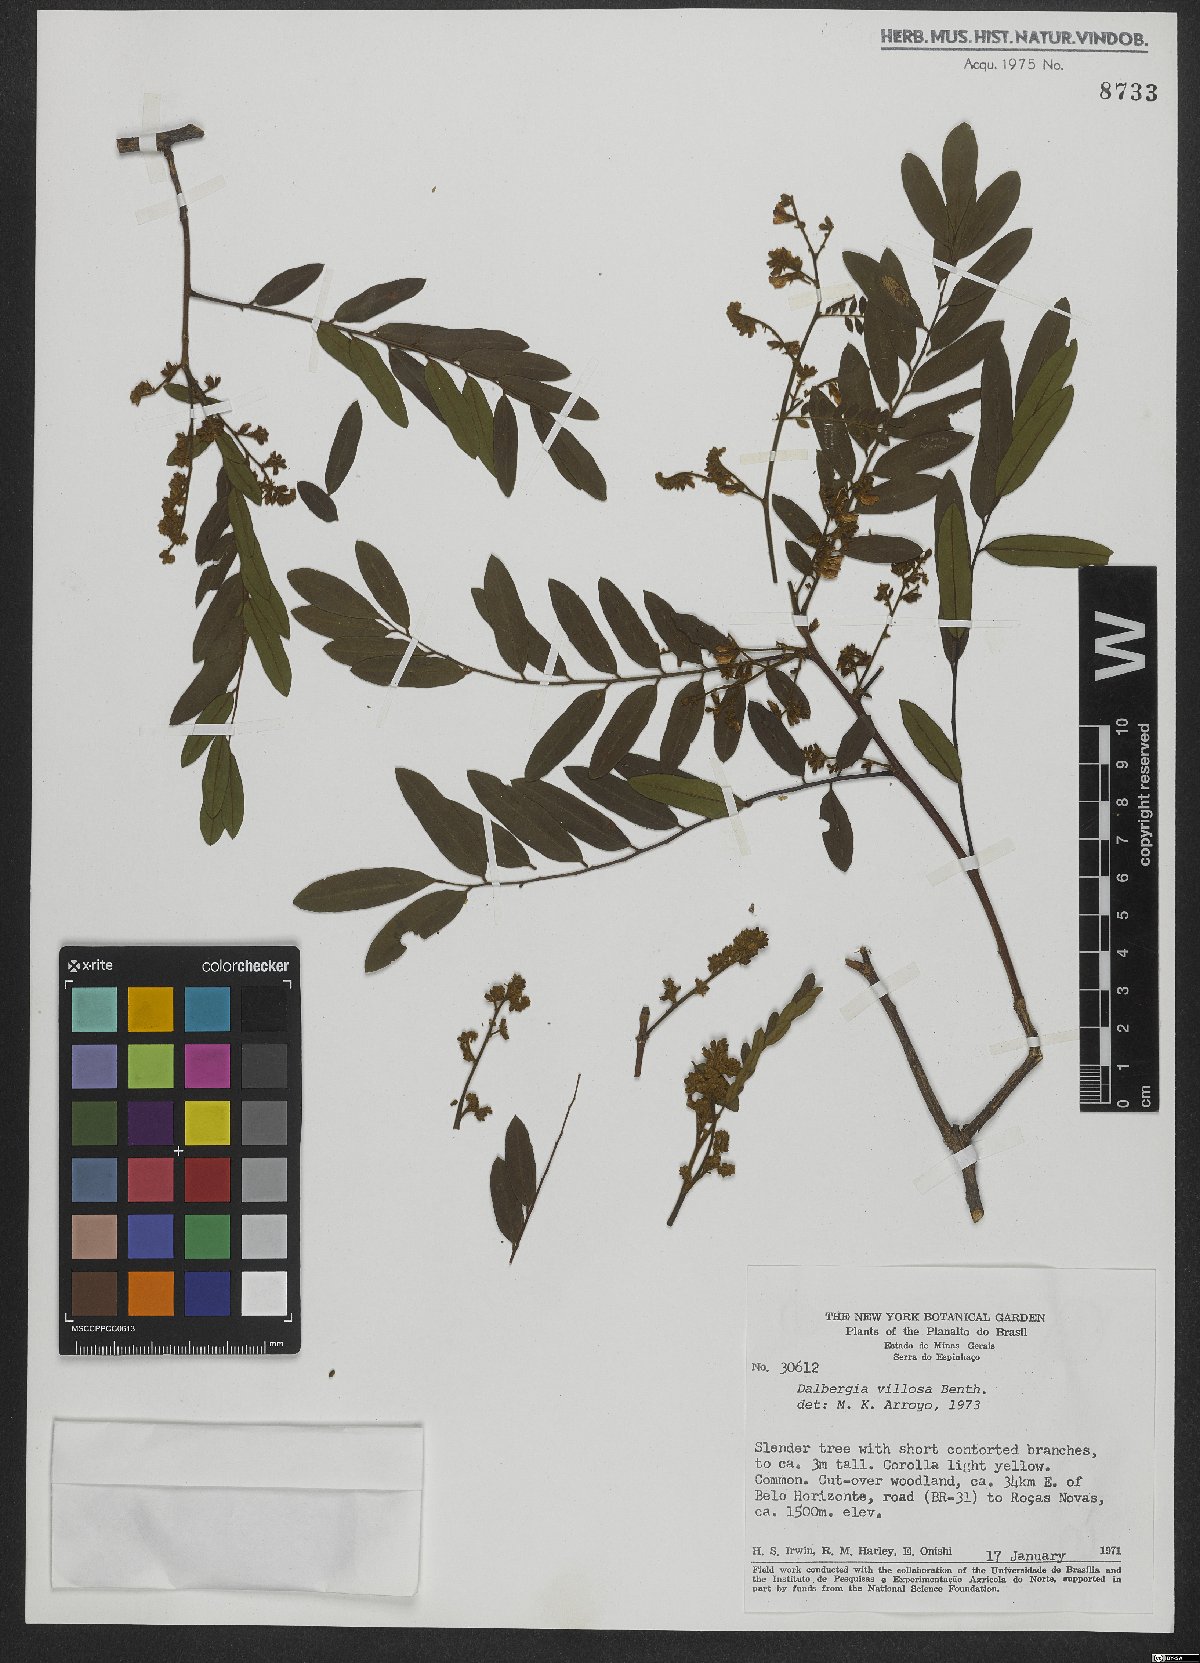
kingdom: Plantae
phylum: Tracheophyta
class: Magnoliopsida
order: Fabales
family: Fabaceae
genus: Dalbergia
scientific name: Dalbergia villosa
